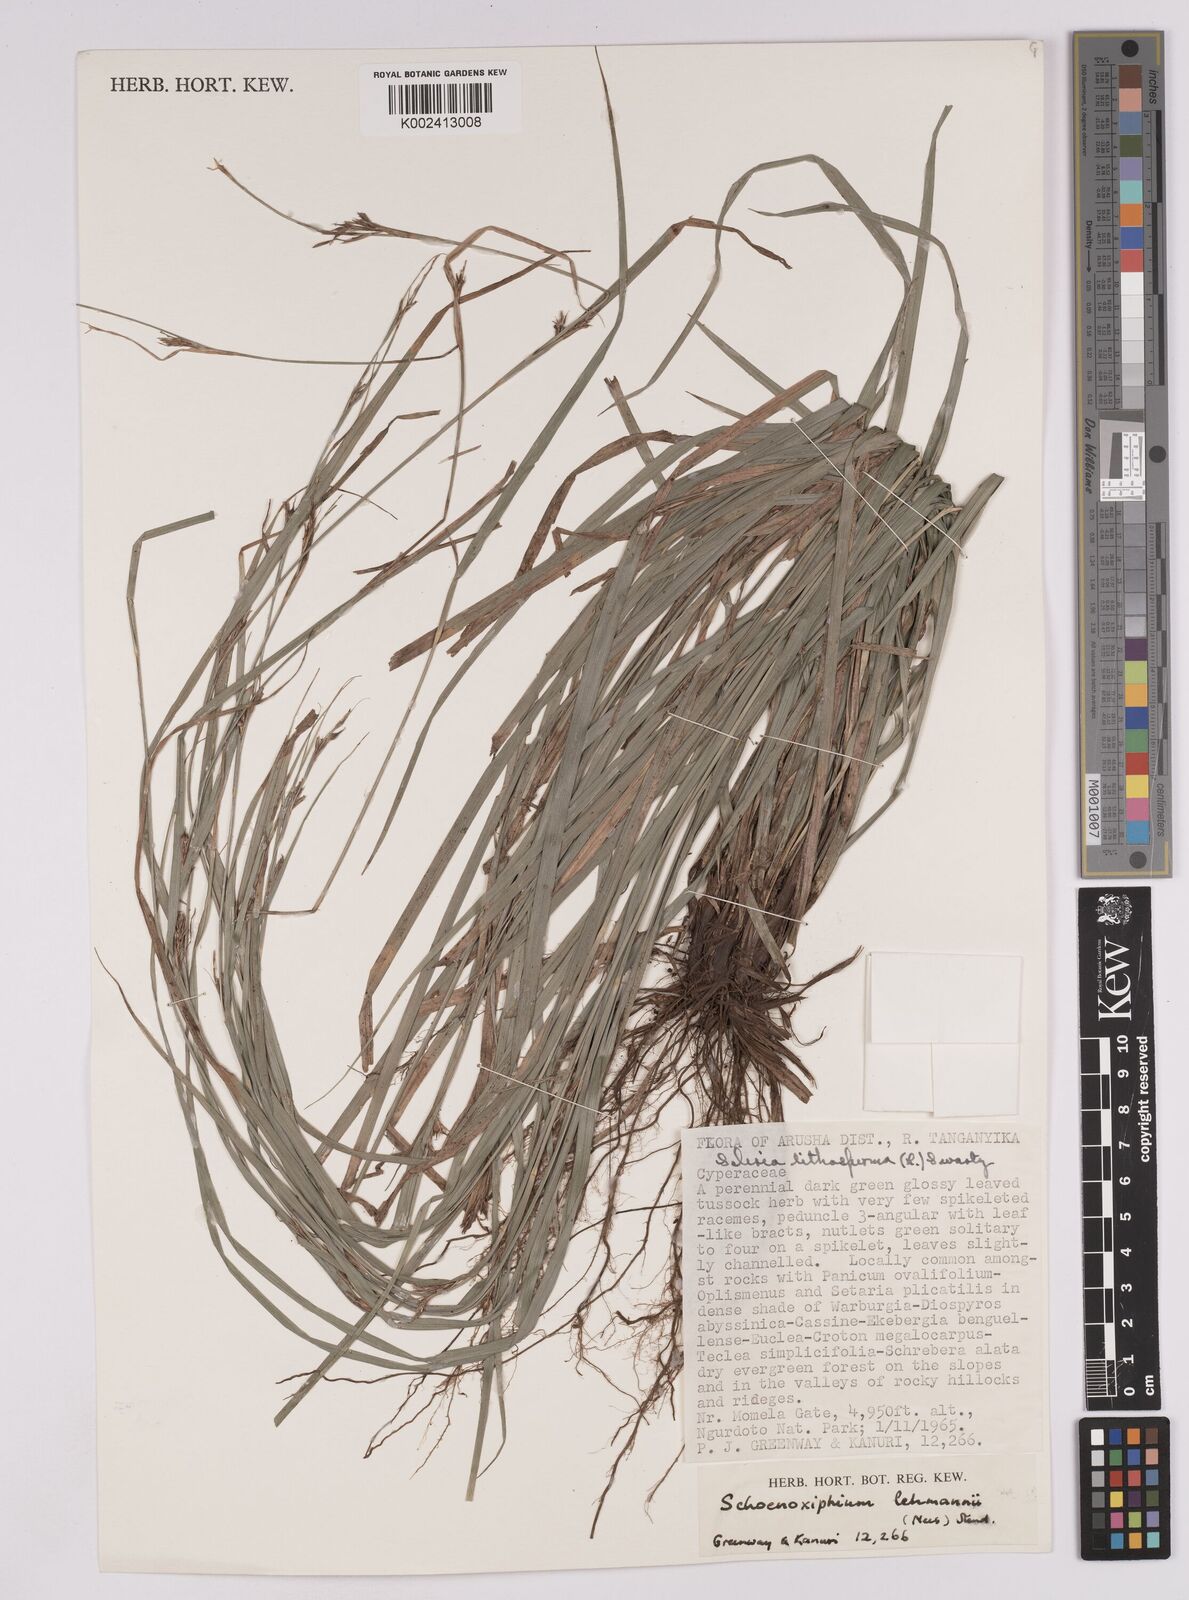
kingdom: Plantae
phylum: Tracheophyta
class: Liliopsida
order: Poales
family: Cyperaceae
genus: Carex
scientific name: Carex uhligii
